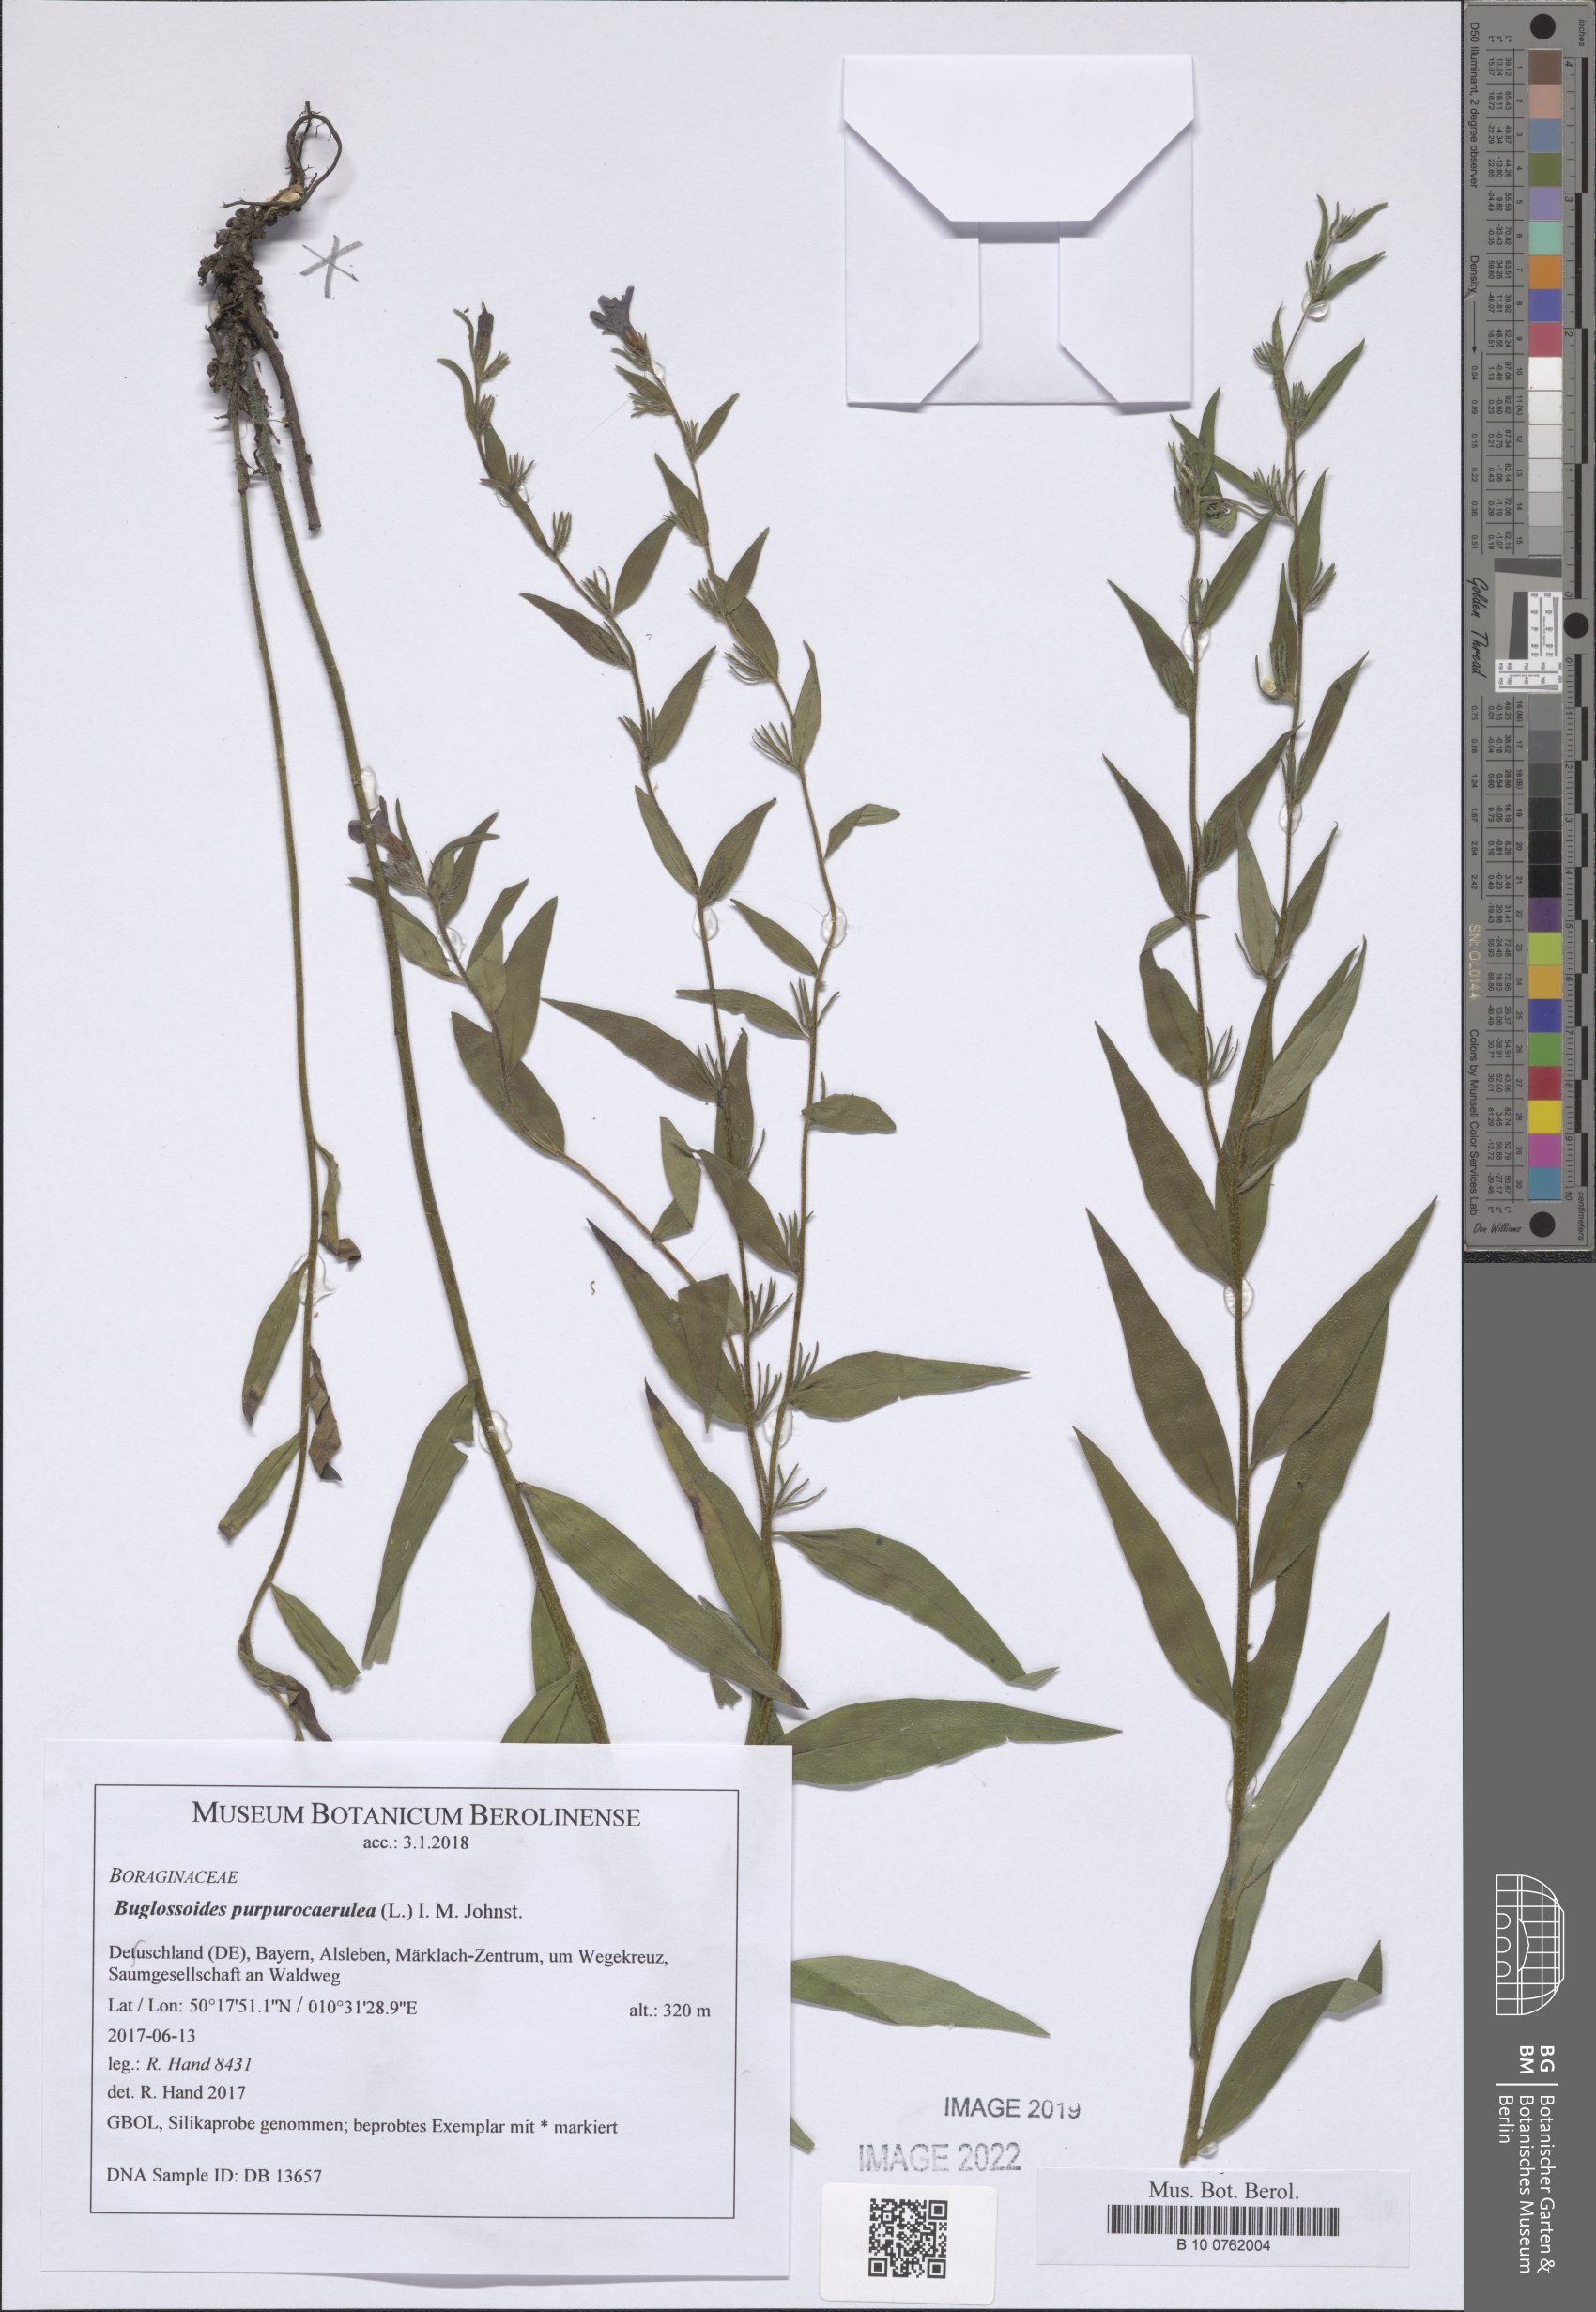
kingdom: Plantae
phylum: Tracheophyta
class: Magnoliopsida
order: Boraginales
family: Boraginaceae
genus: Aegonychon
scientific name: Aegonychon purpurocaeruleum
